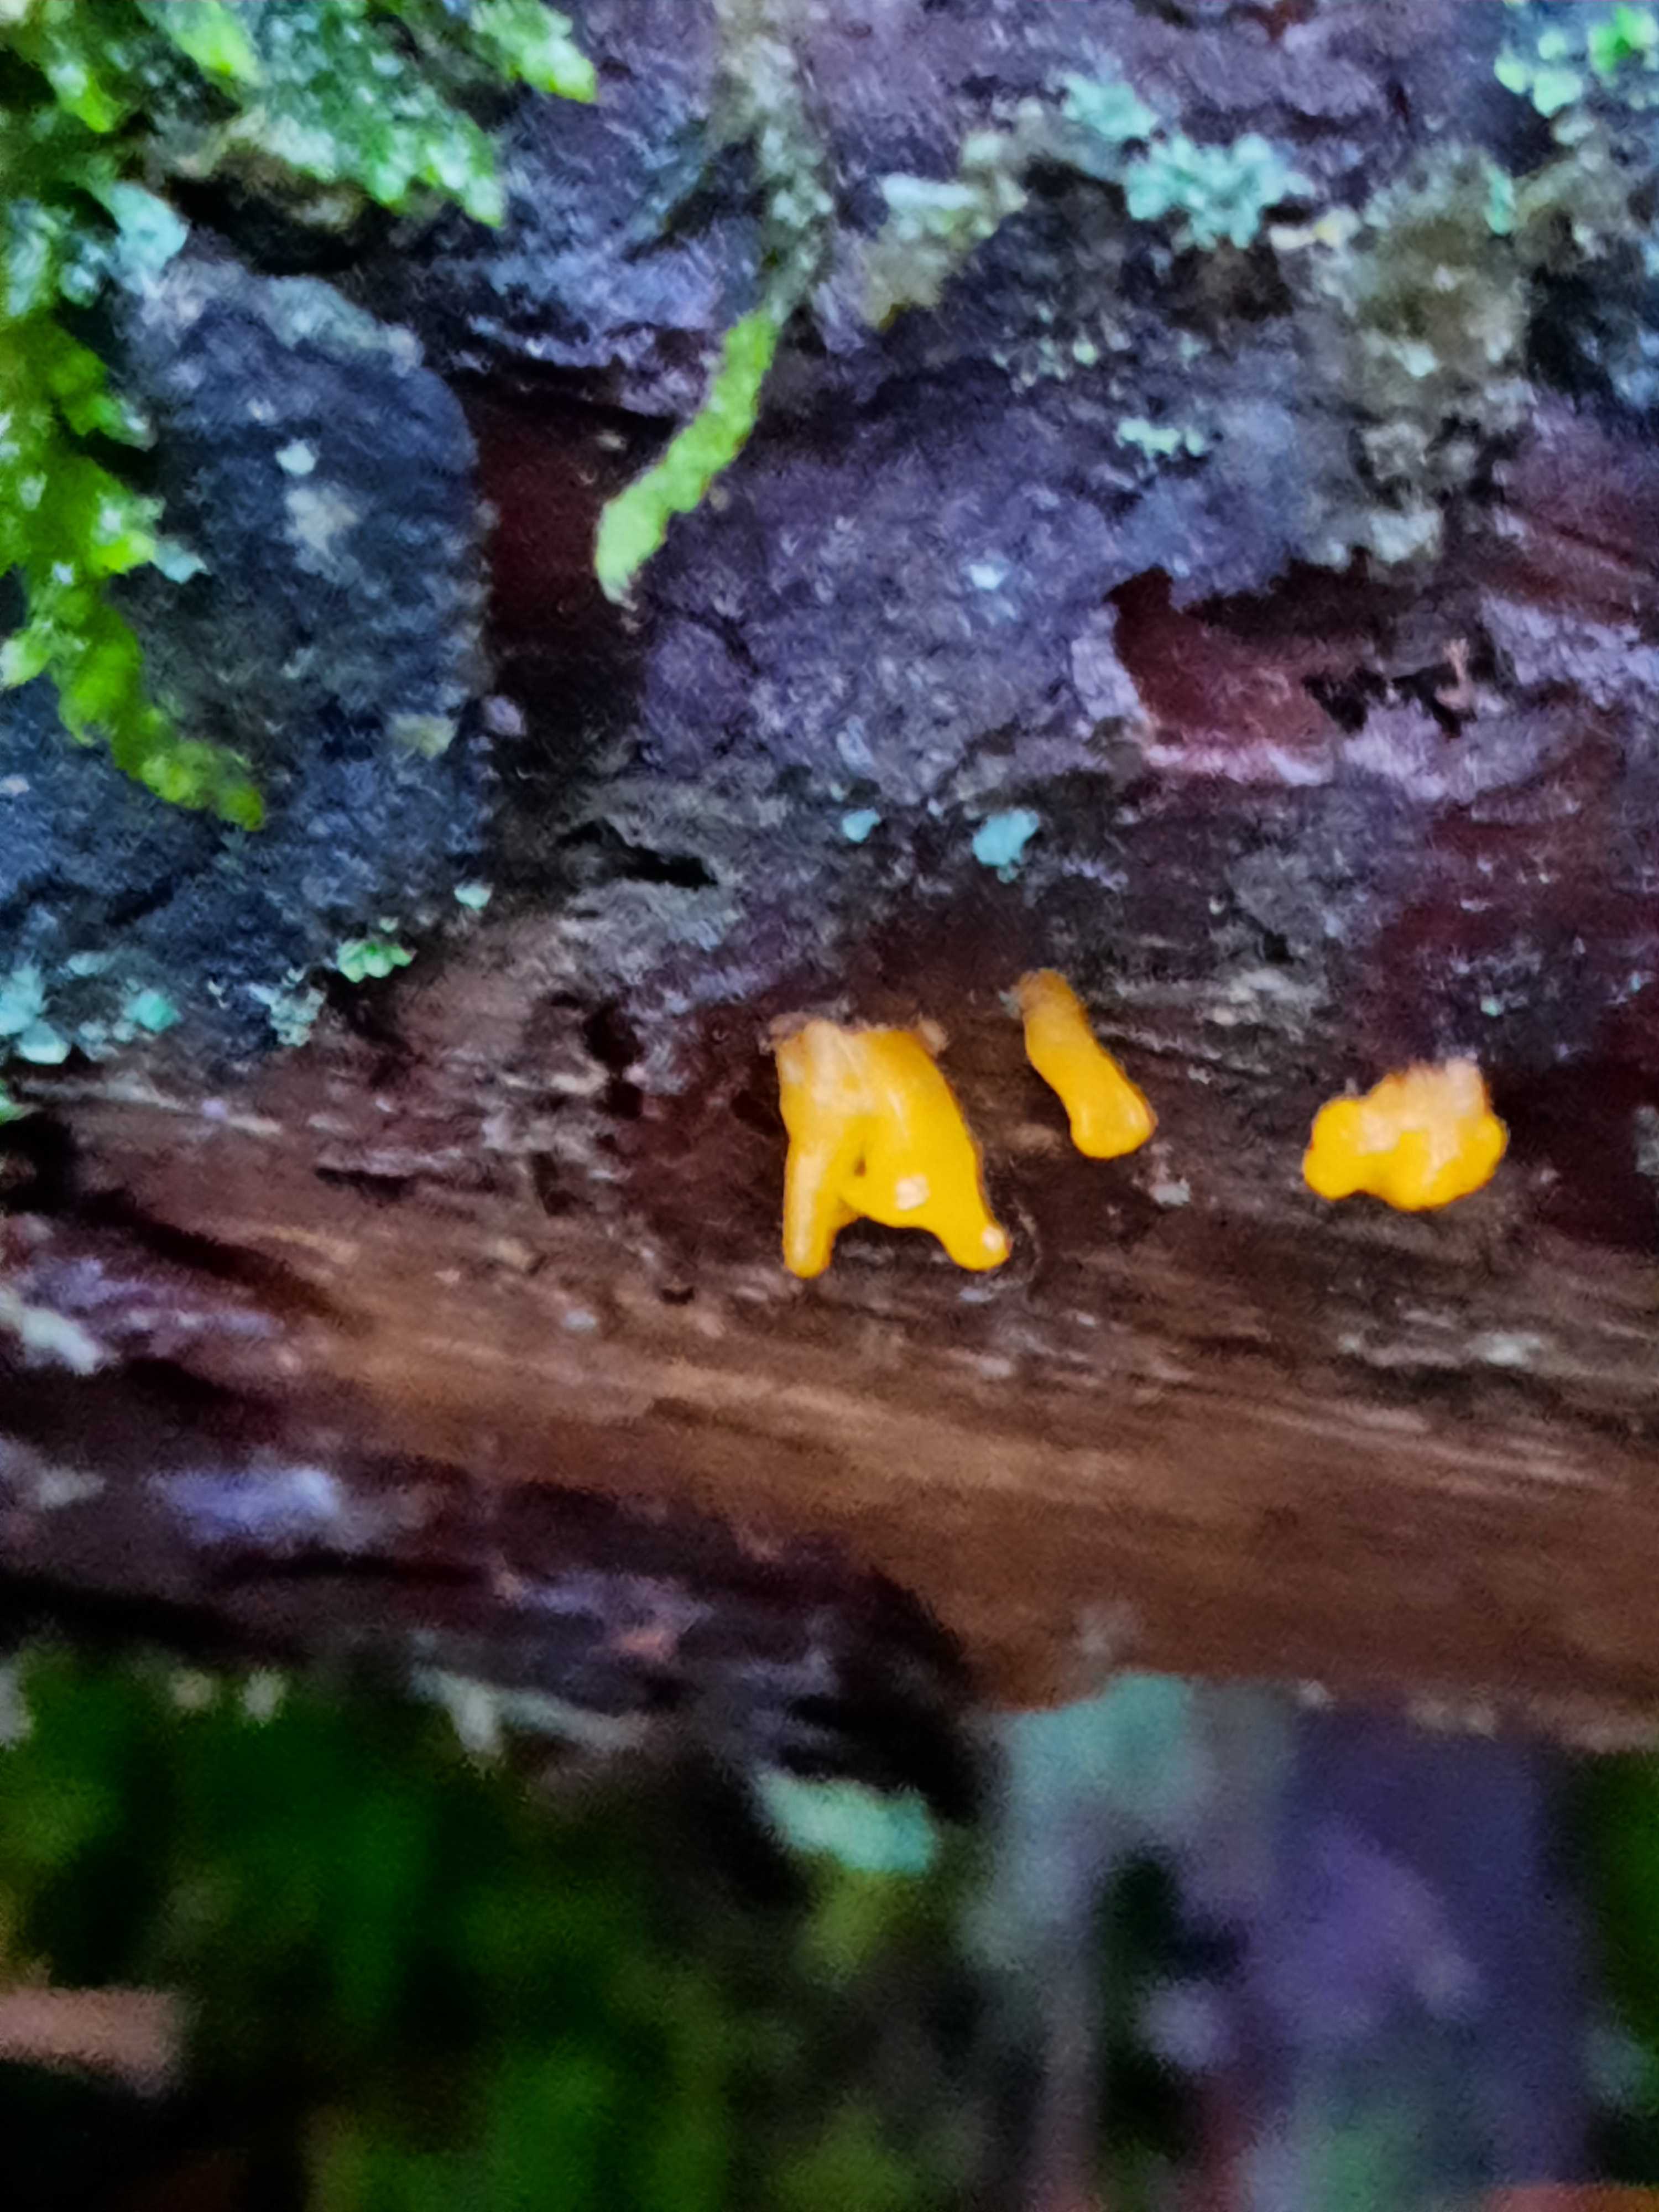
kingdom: Fungi
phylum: Basidiomycota
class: Dacrymycetes
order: Dacrymycetales
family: Dacrymycetaceae
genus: Calocera
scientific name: Calocera furcata
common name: fyrre-guldgaffel
